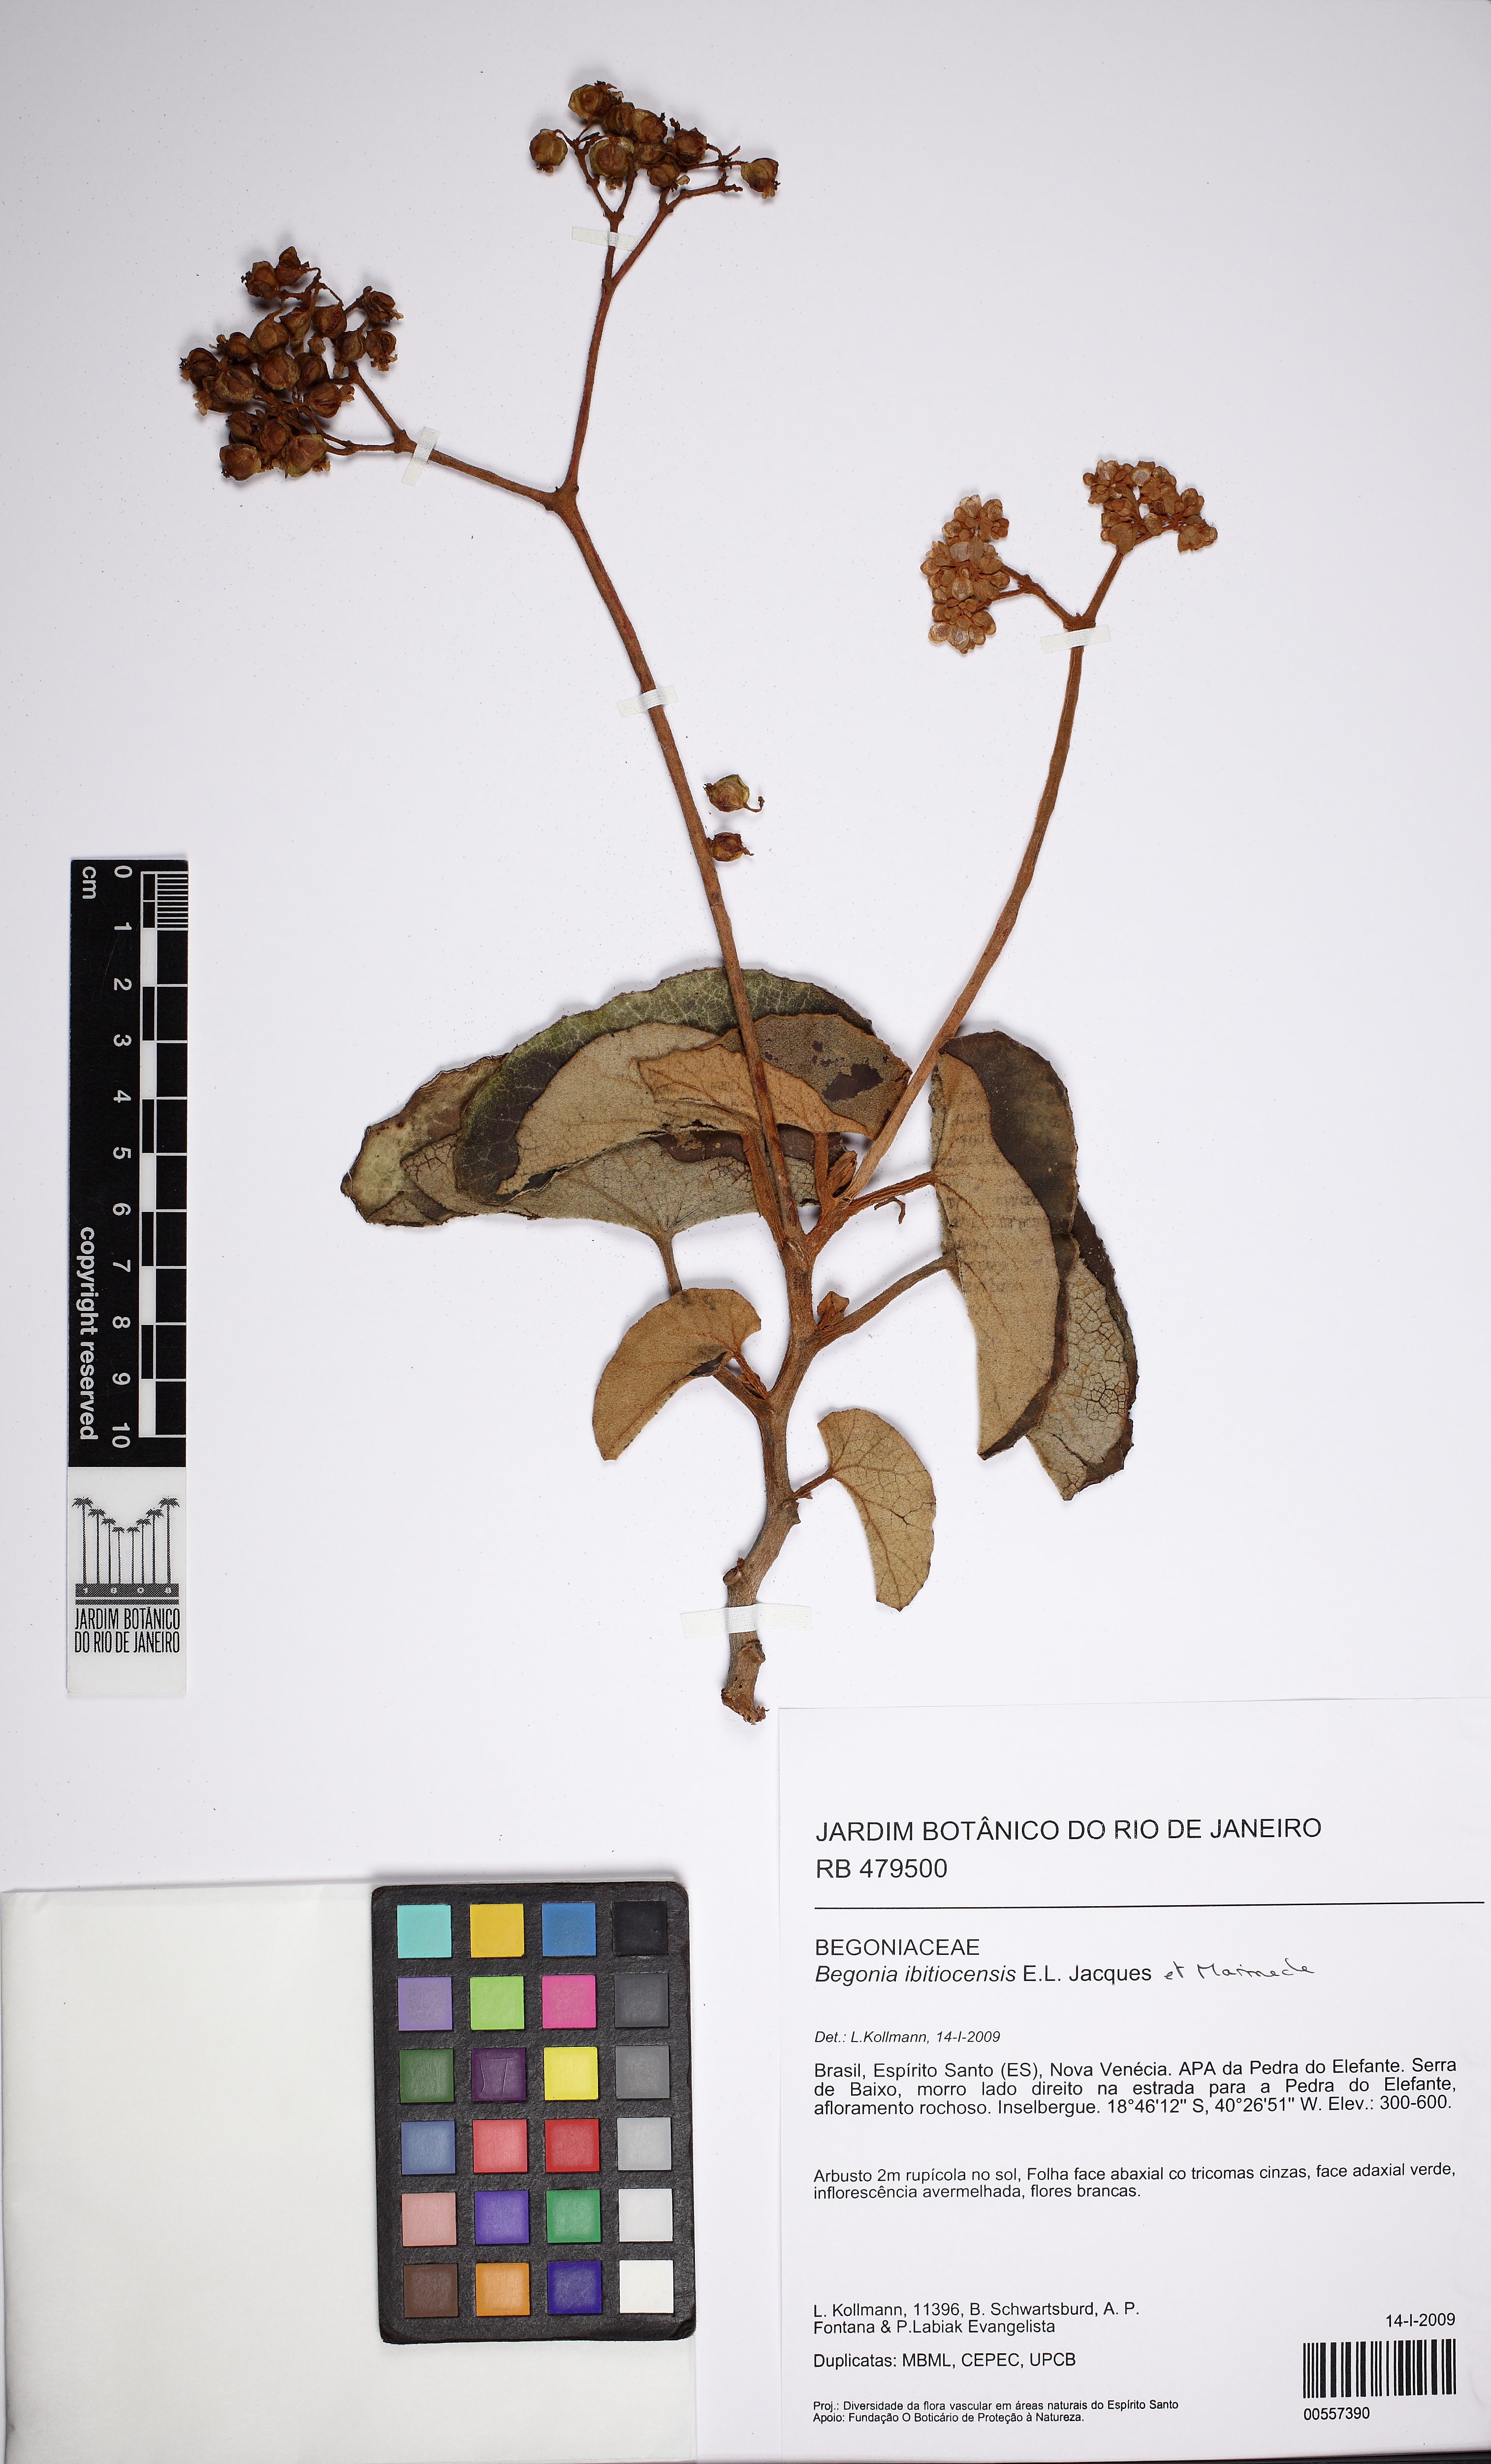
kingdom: Plantae
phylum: Tracheophyta
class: Magnoliopsida
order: Cucurbitales
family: Begoniaceae
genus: Begonia
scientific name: Begonia ibitiocensis
